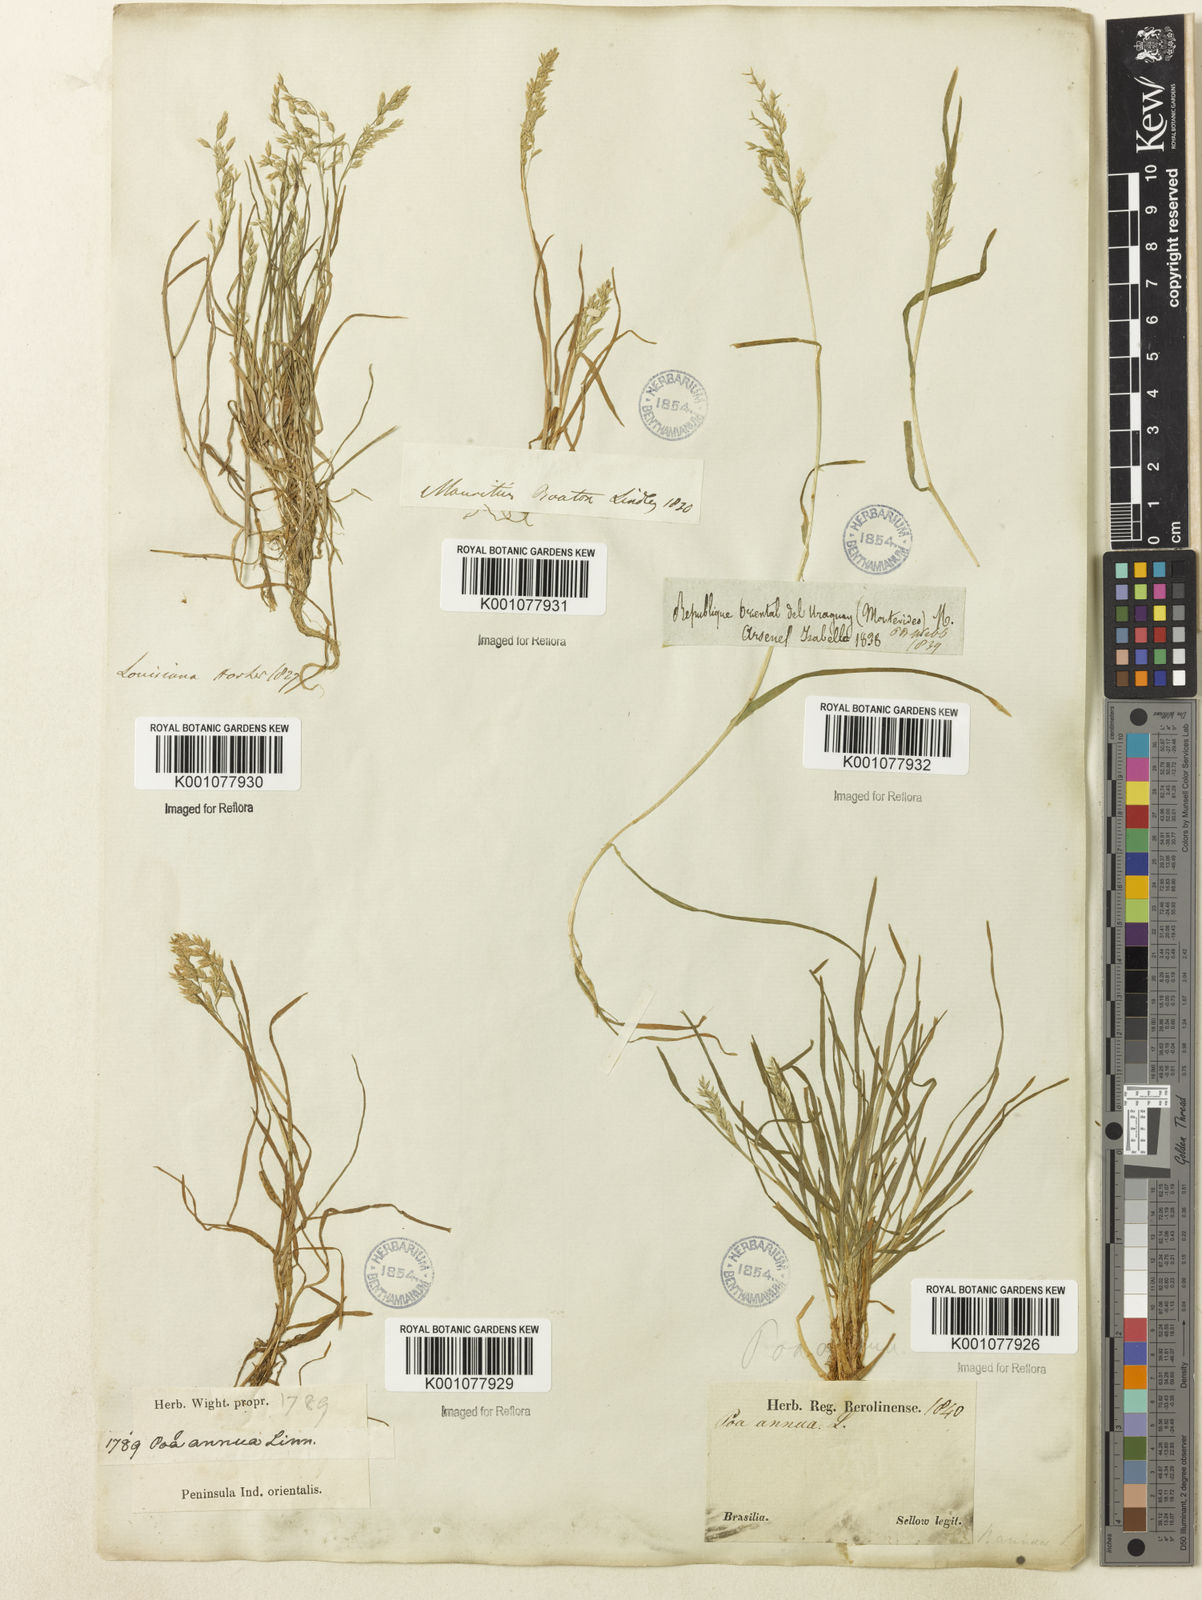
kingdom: Plantae
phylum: Tracheophyta
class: Liliopsida
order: Poales
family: Poaceae
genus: Poa
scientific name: Poa annua
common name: Annual bluegrass
